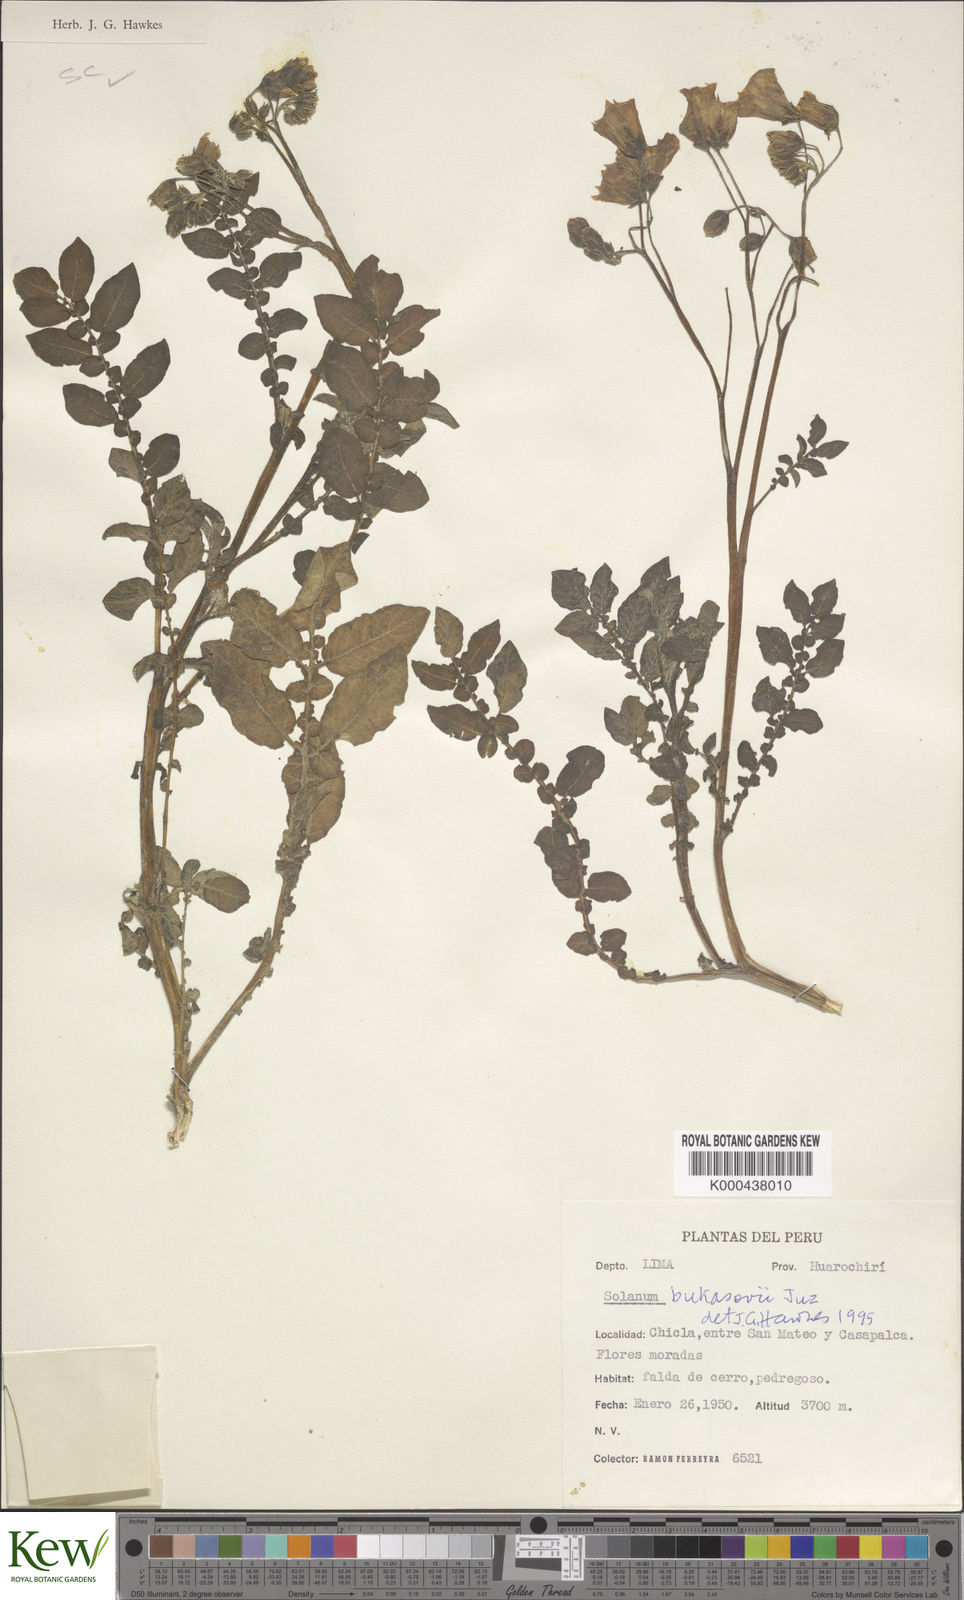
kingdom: Plantae
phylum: Tracheophyta
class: Magnoliopsida
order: Solanales
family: Solanaceae
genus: Solanum
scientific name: Solanum candolleanum
